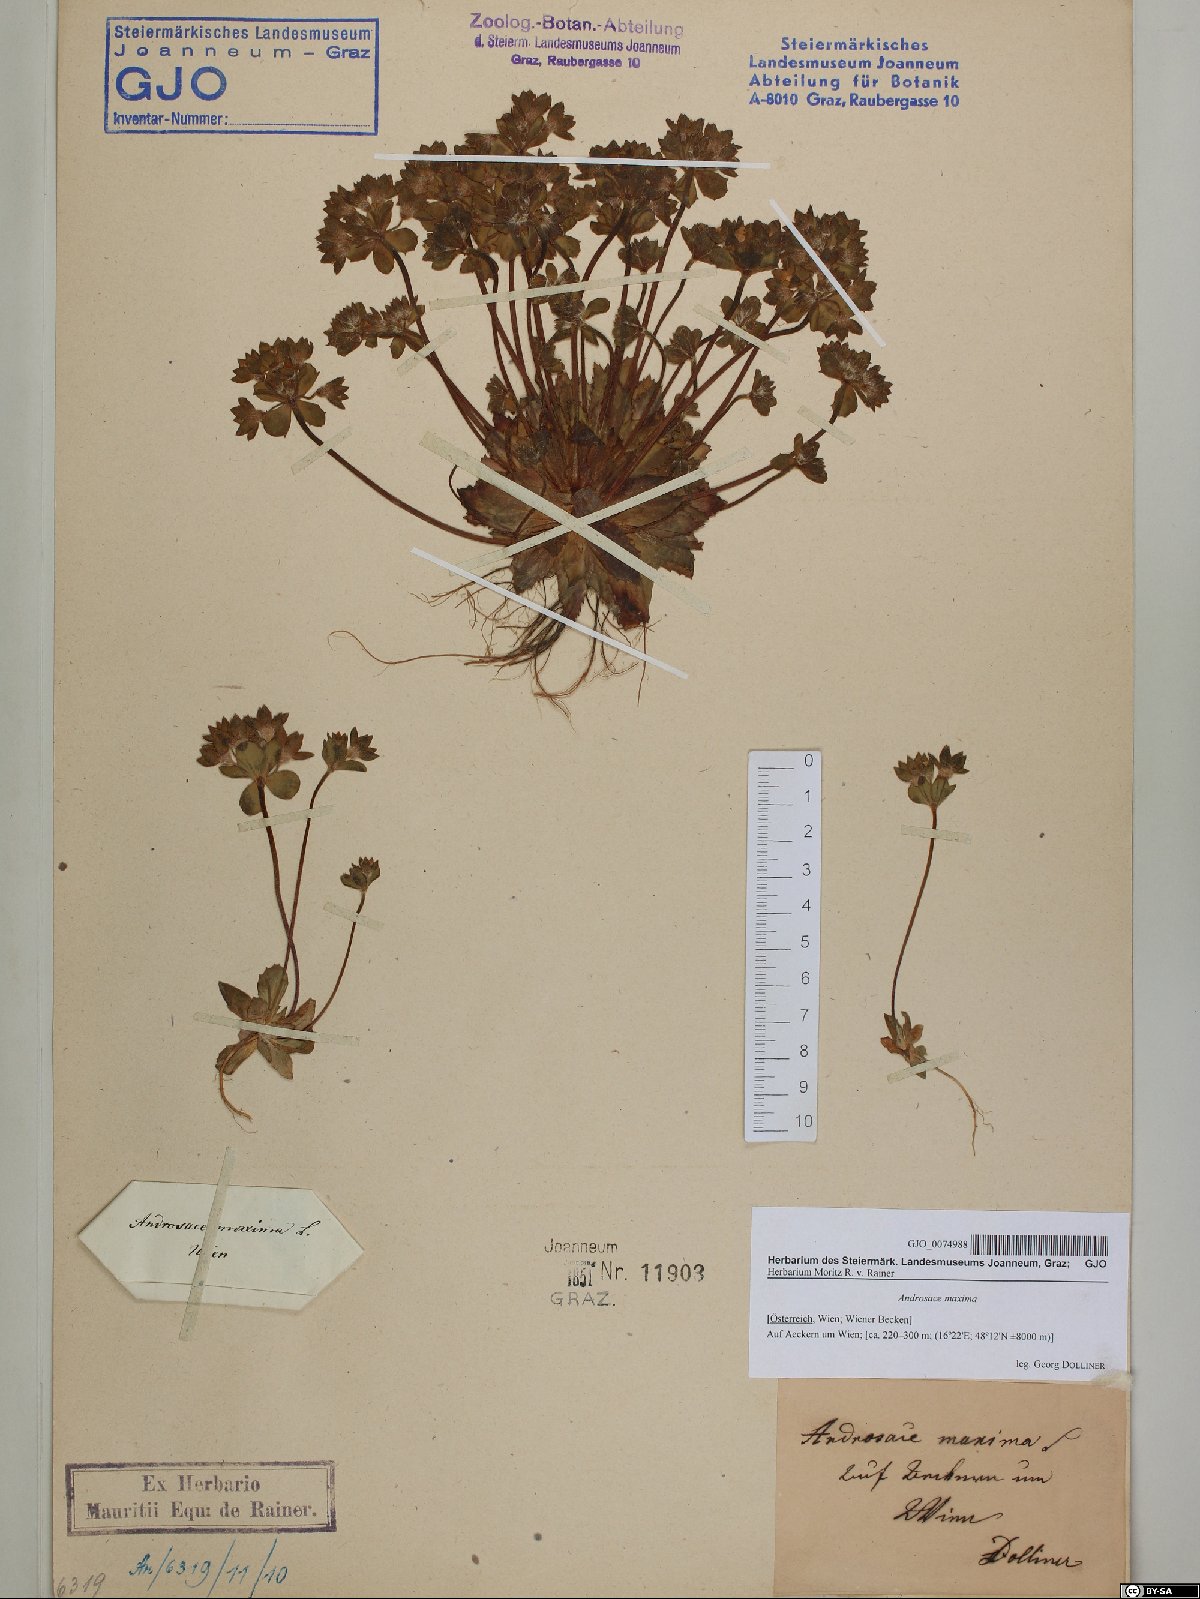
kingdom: Plantae
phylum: Tracheophyta
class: Magnoliopsida
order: Ericales
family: Primulaceae
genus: Androsace
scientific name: Androsace maxima
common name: Annual androsace
